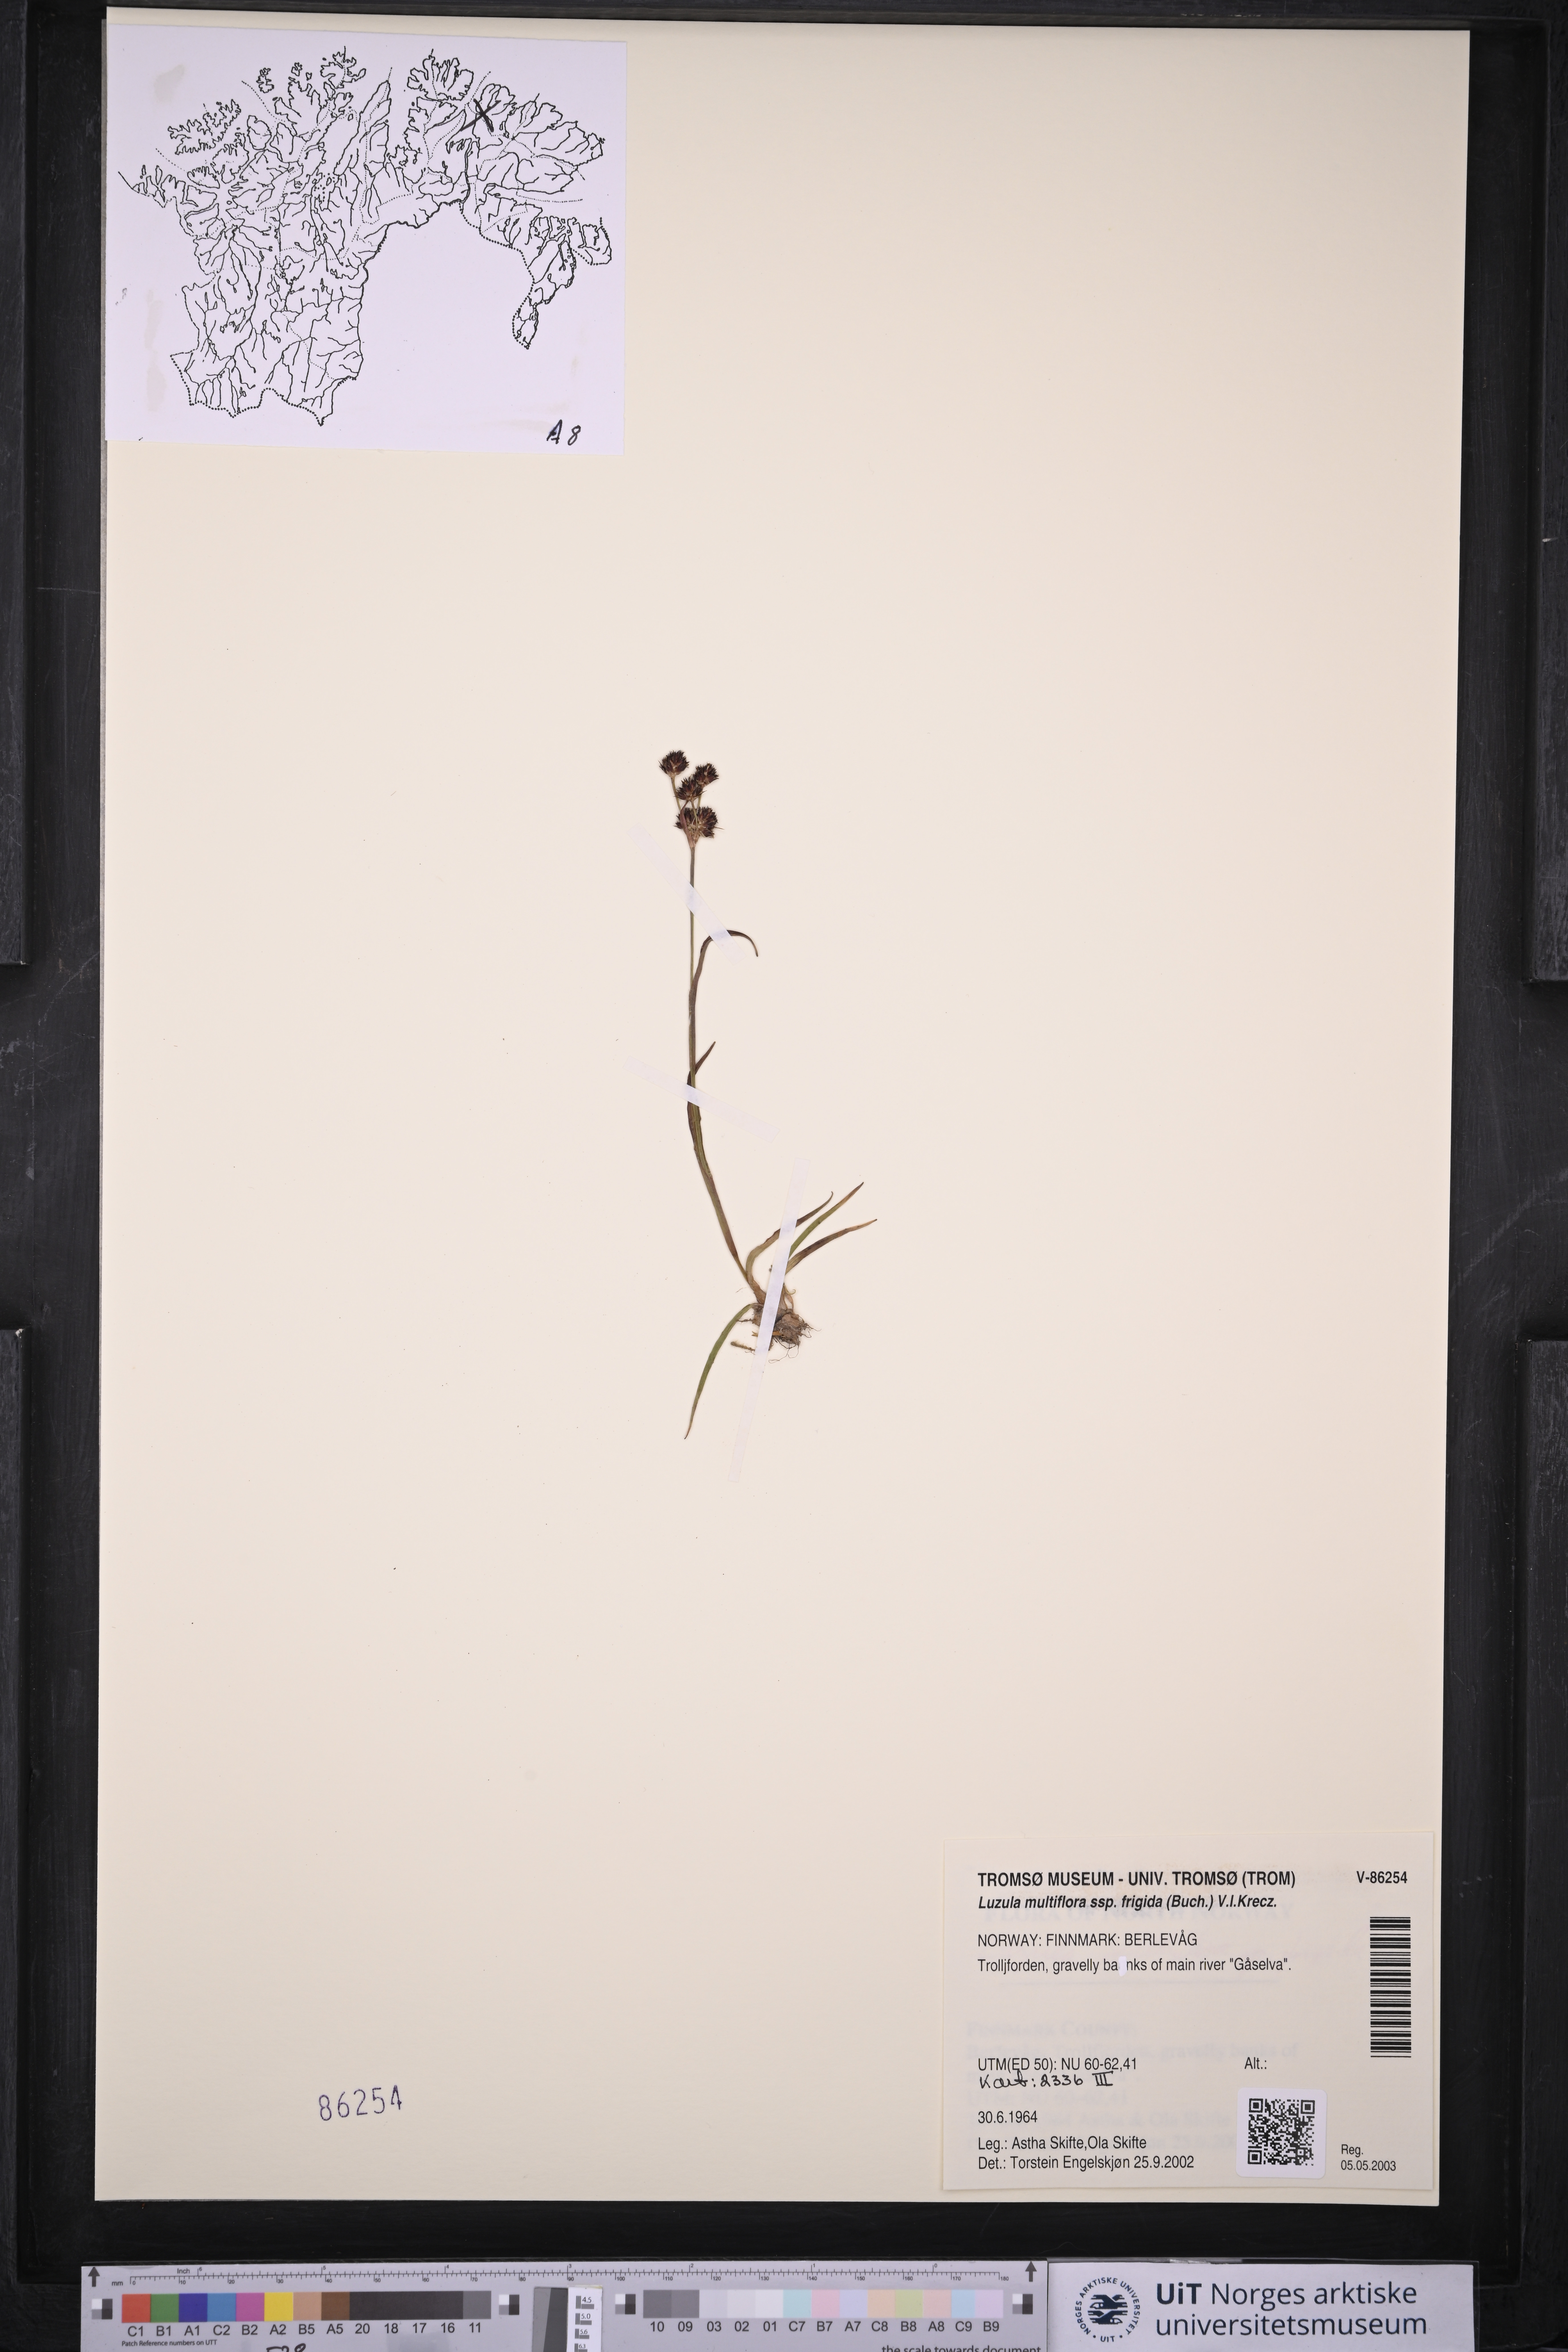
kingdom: Plantae
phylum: Tracheophyta
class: Liliopsida
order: Poales
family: Juncaceae
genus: Luzula
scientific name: Luzula multiflora
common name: Heath wood-rush
